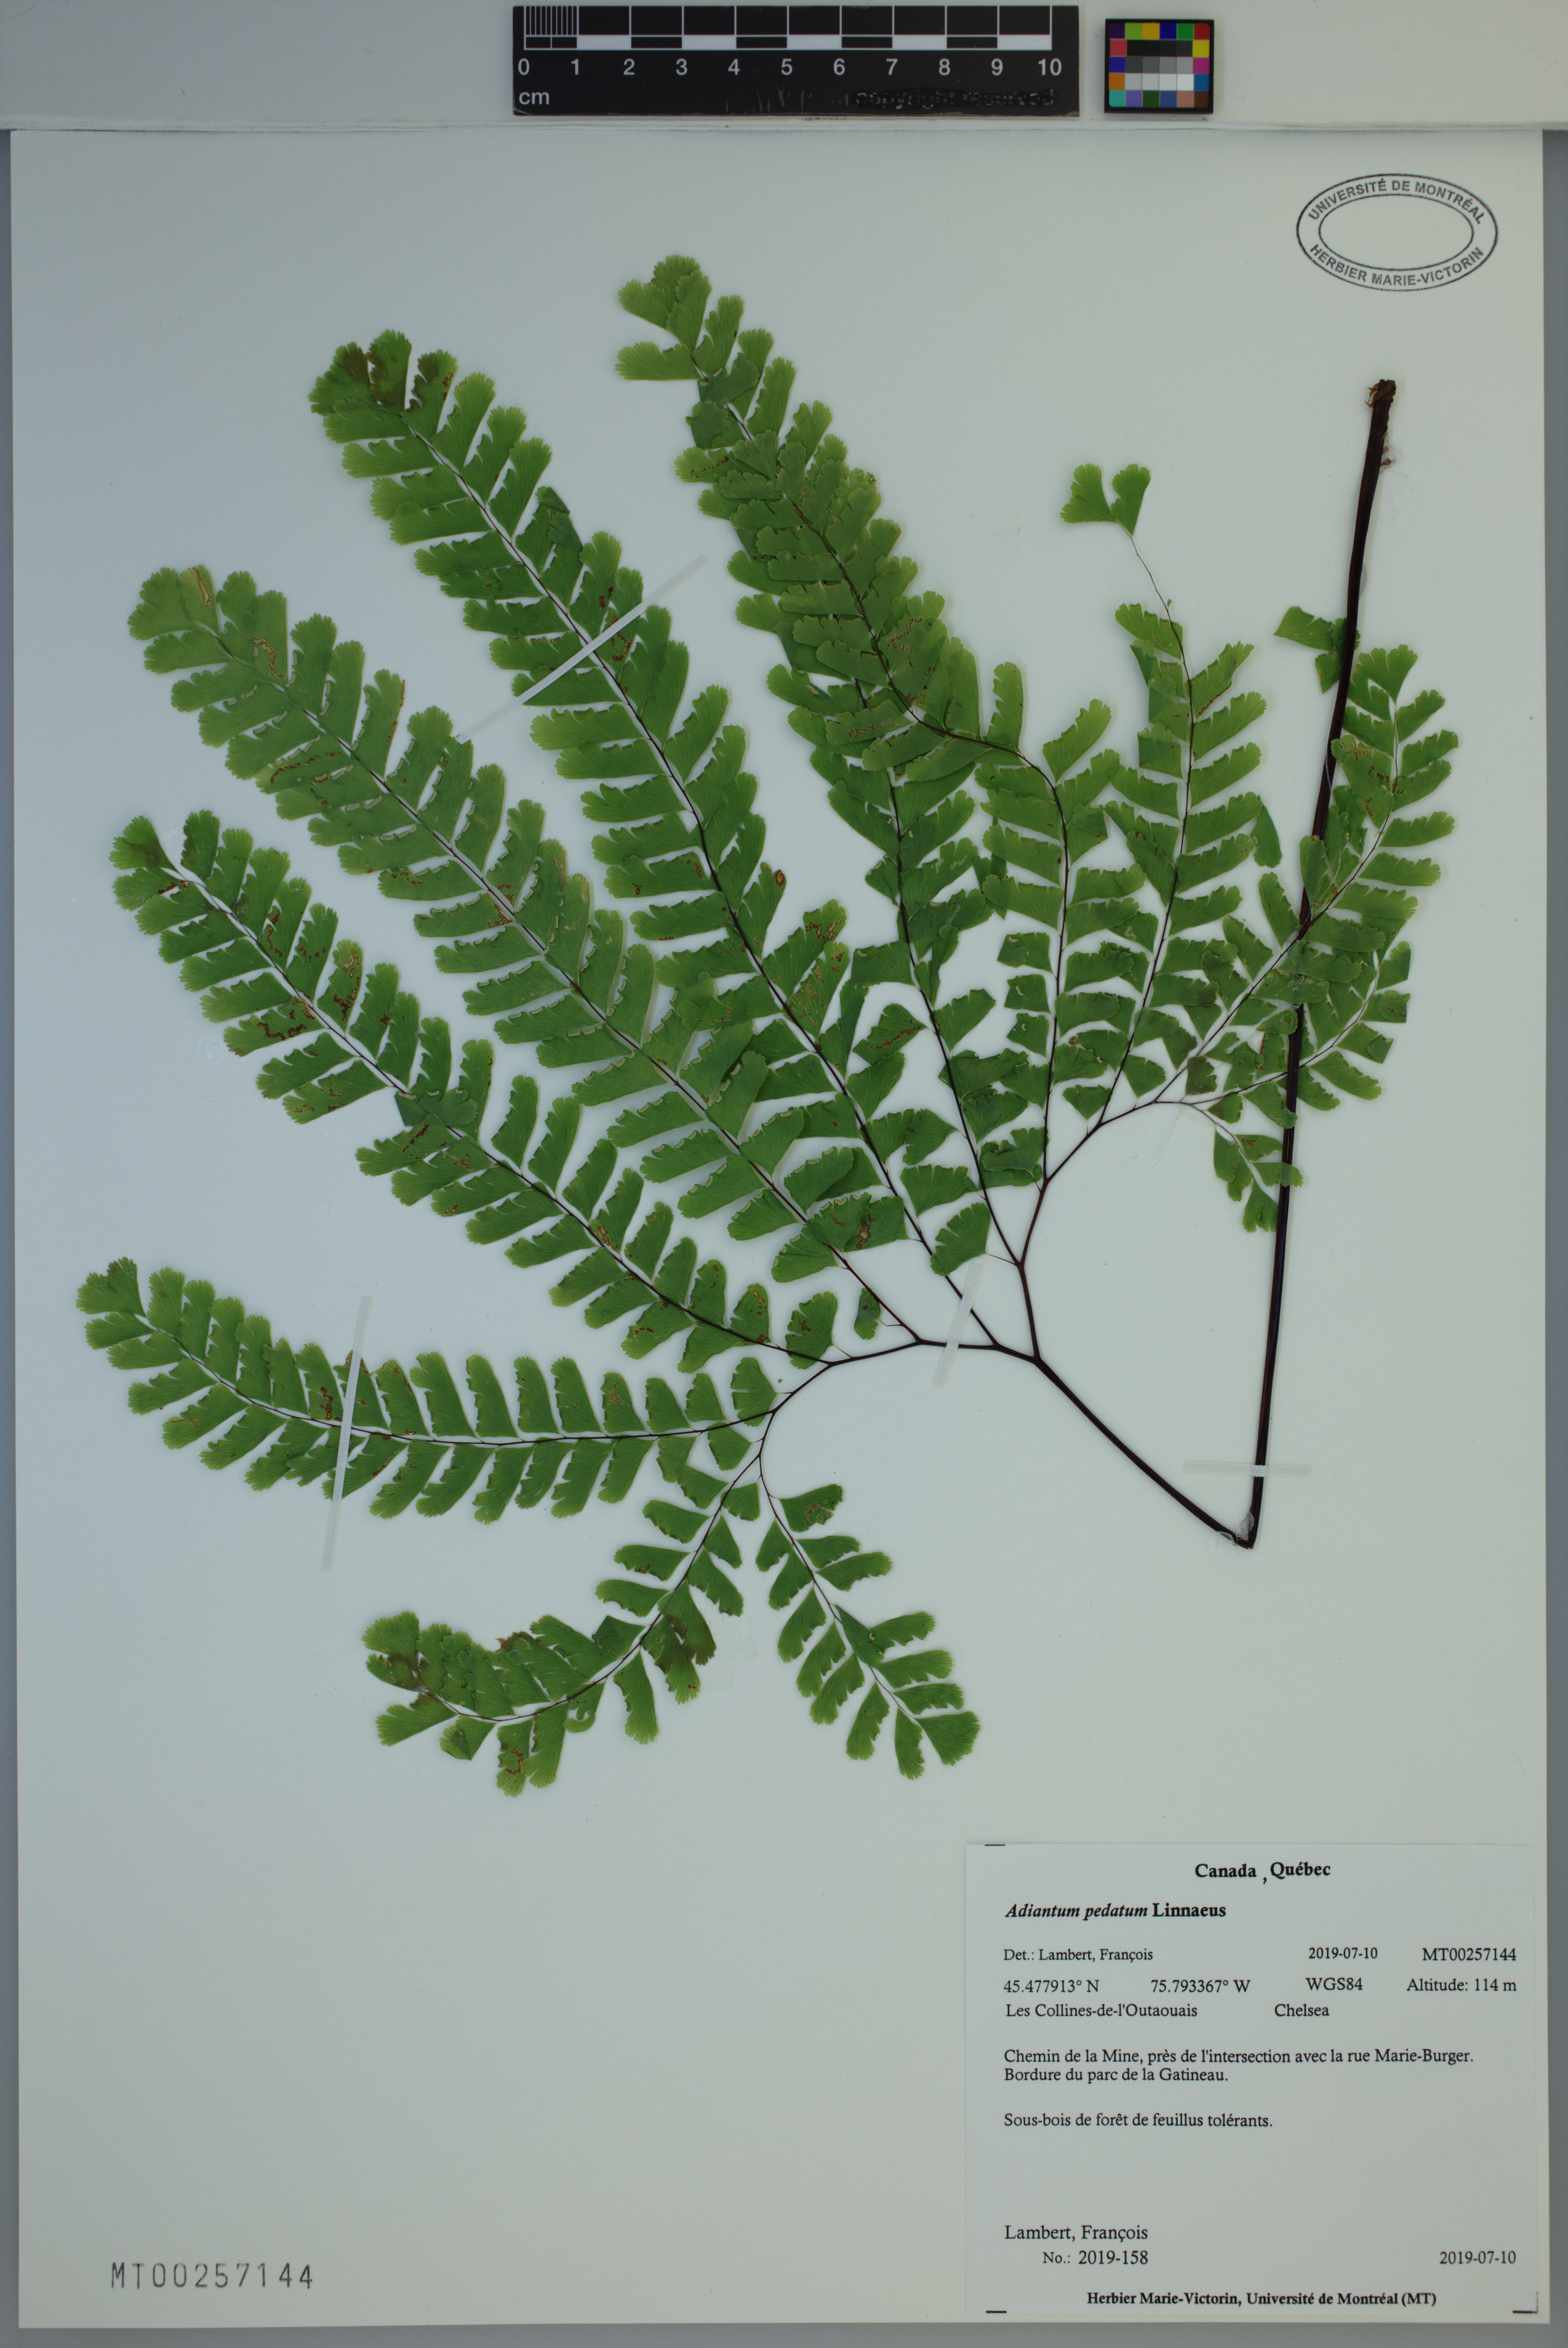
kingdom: Plantae
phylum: Tracheophyta
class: Polypodiopsida
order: Polypodiales
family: Pteridaceae
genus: Adiantum
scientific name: Adiantum pedatum
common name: Five-finger fern
